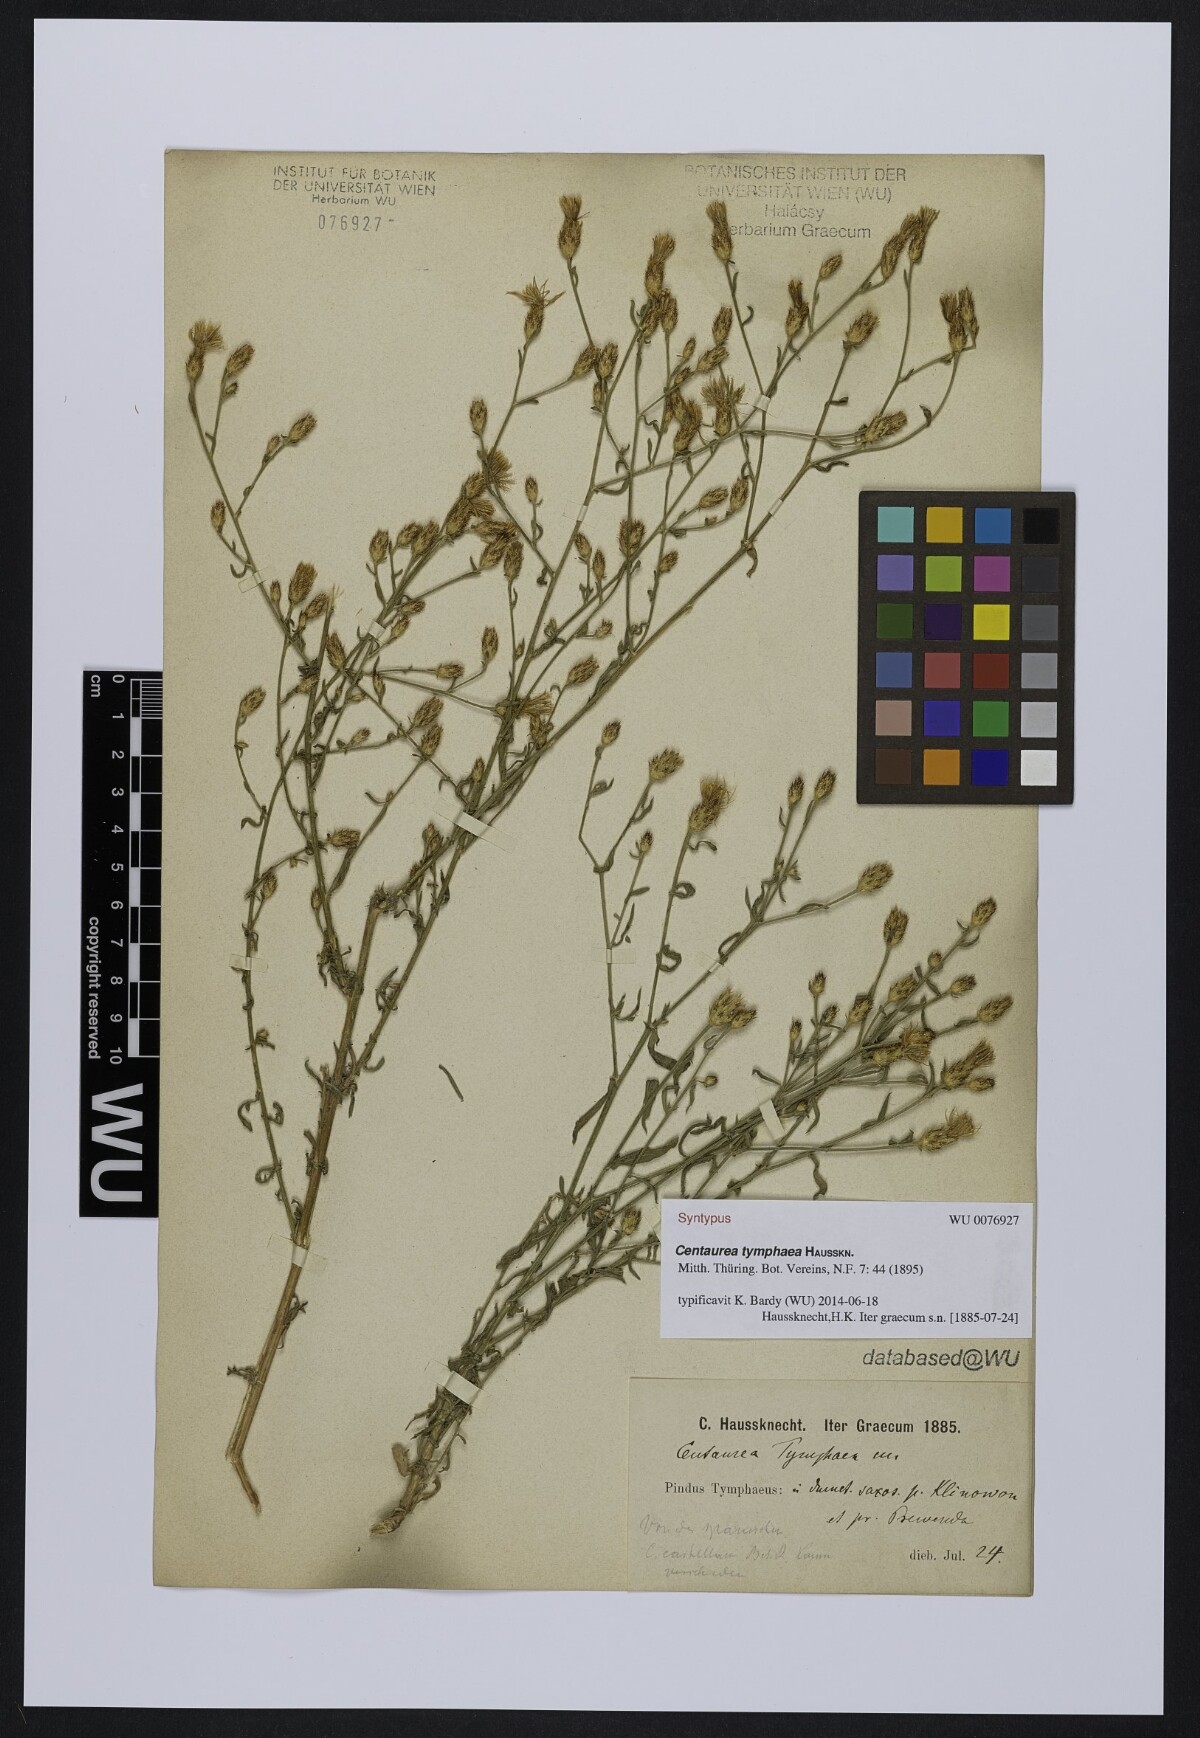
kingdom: Plantae
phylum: Tracheophyta
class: Magnoliopsida
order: Asterales
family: Asteraceae
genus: Centaurea
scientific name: Centaurea tymphaea
